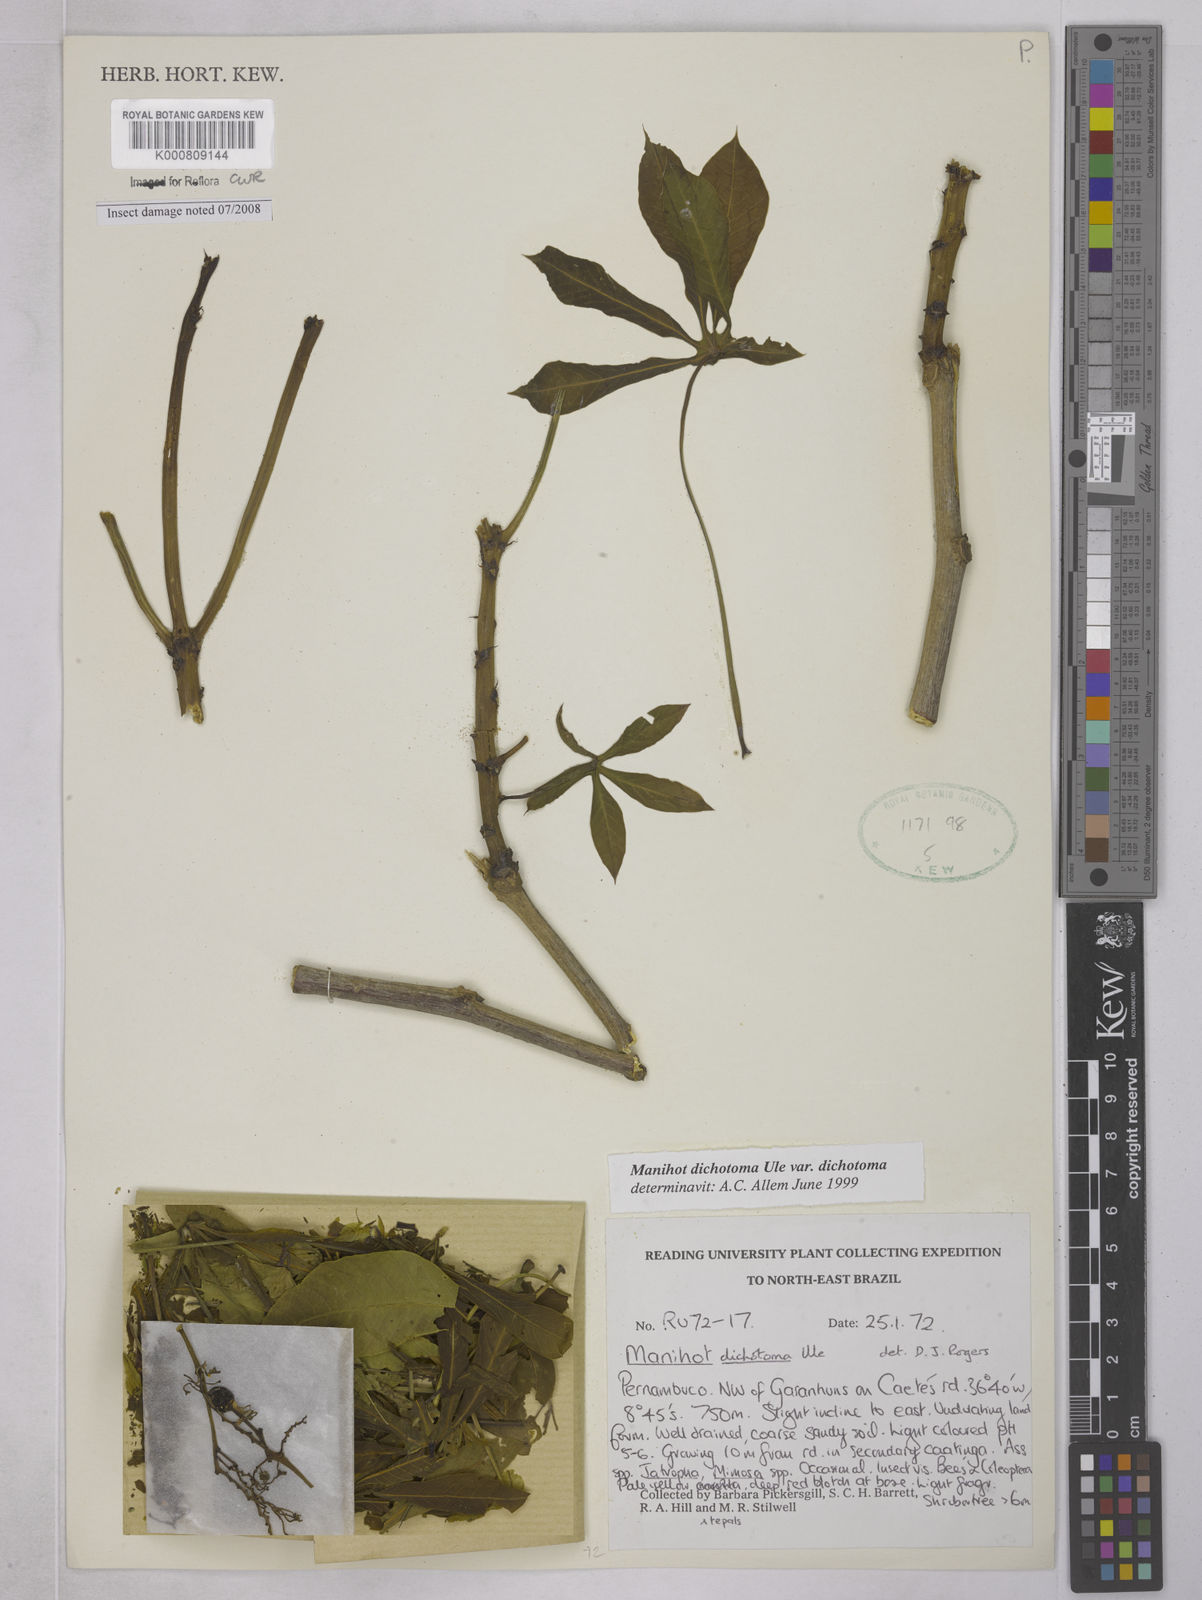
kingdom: Plantae
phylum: Tracheophyta
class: Magnoliopsida
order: Malpighiales
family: Euphorbiaceae
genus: Manihot
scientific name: Manihot dichotoma
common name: Jequie rubber tree
